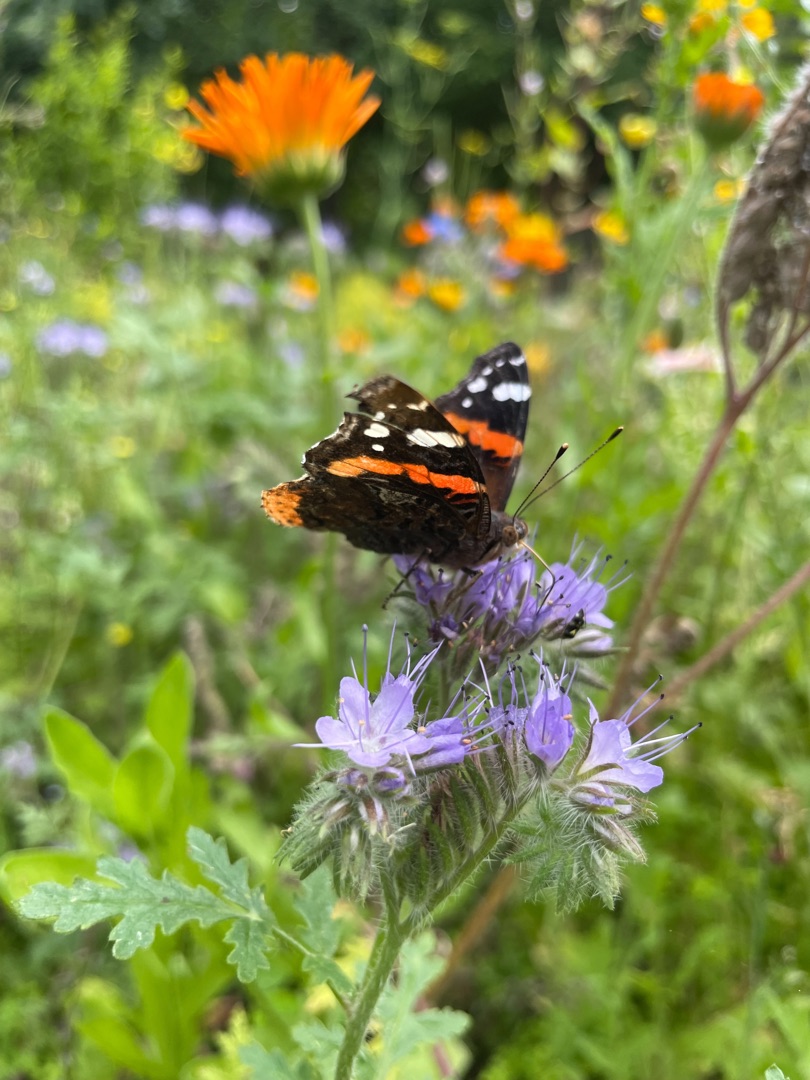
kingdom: Animalia
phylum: Arthropoda
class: Insecta
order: Lepidoptera
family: Nymphalidae
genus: Vanessa
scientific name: Vanessa atalanta
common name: Admiral
